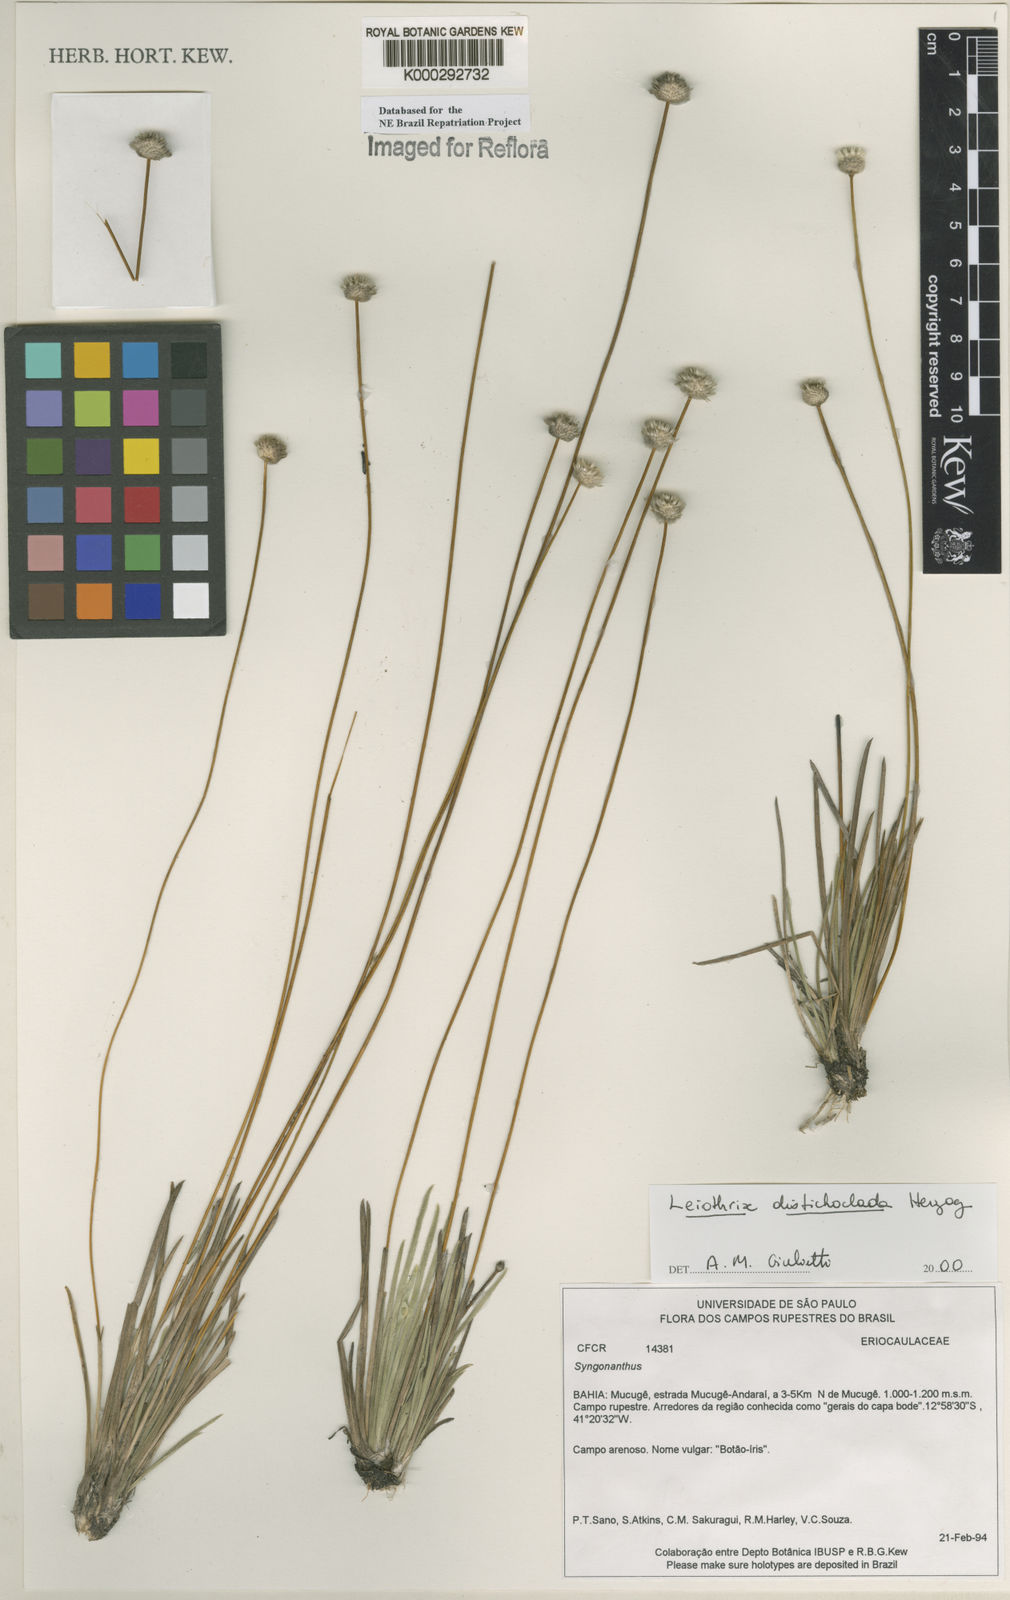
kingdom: Plantae
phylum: Tracheophyta
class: Liliopsida
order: Poales
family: Eriocaulaceae
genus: Leiothrix
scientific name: Leiothrix distichoclada
